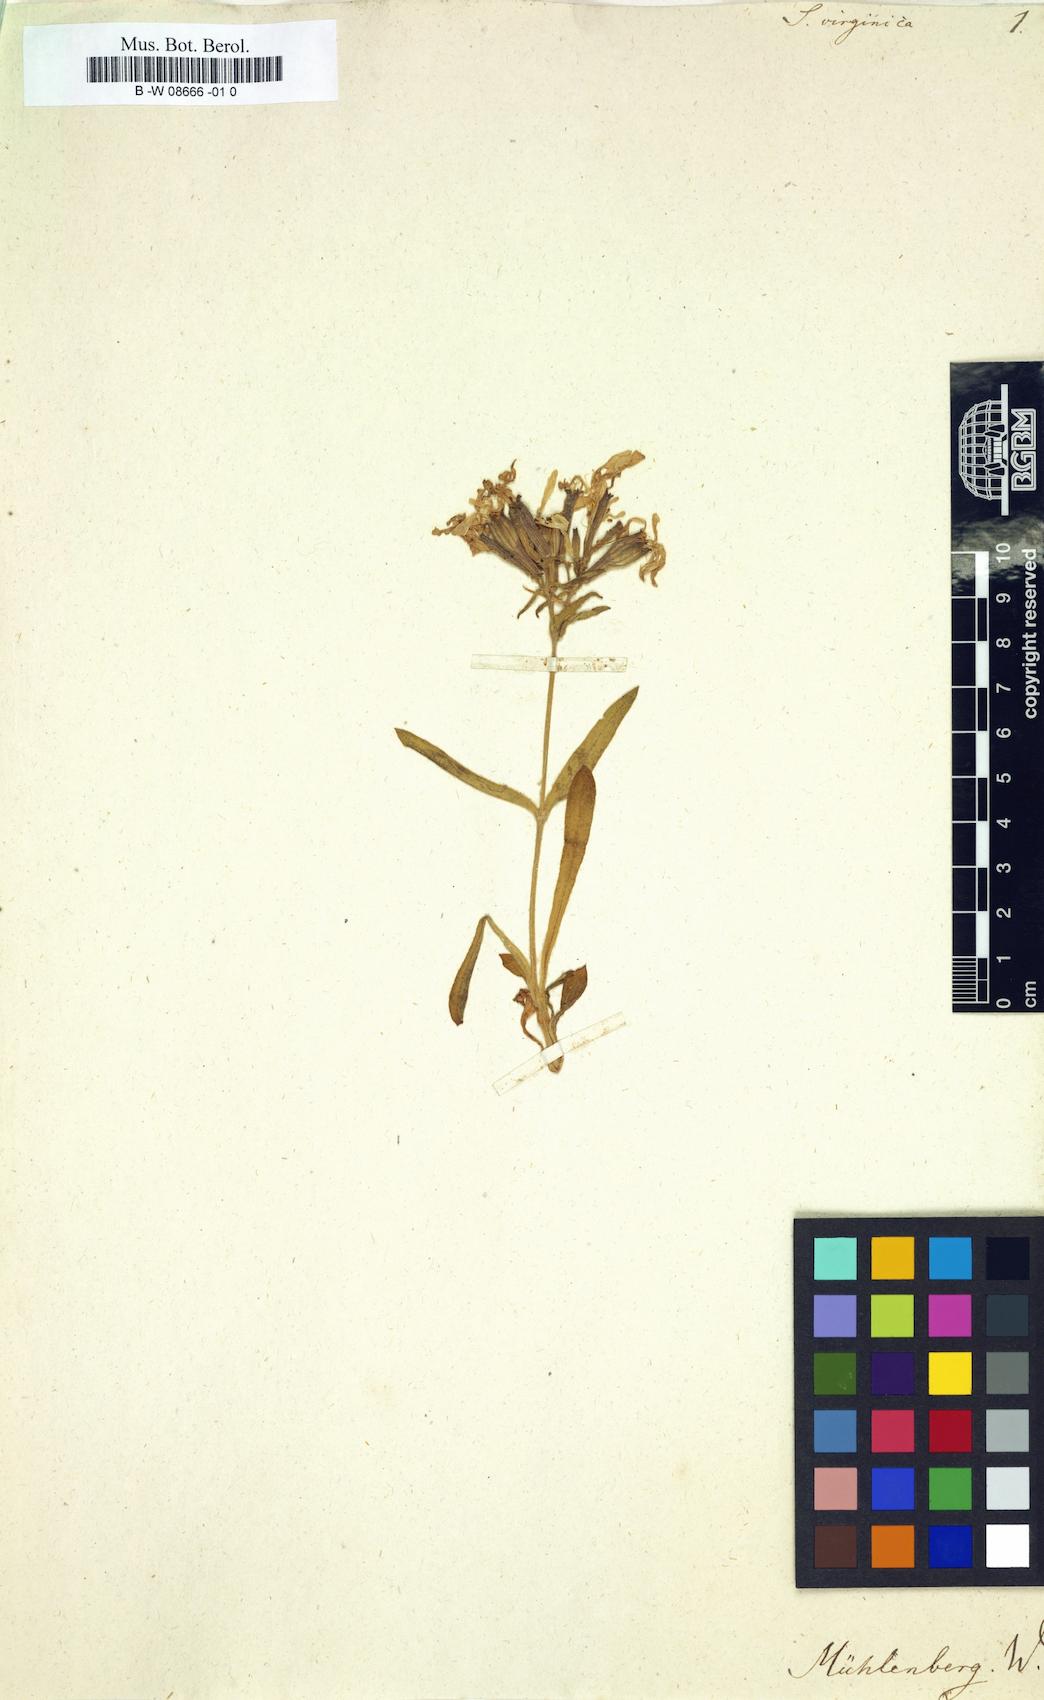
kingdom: Plantae
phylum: Tracheophyta
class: Magnoliopsida
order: Caryophyllales
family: Caryophyllaceae
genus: Silene
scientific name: Silene virginica
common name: Fire-pink
